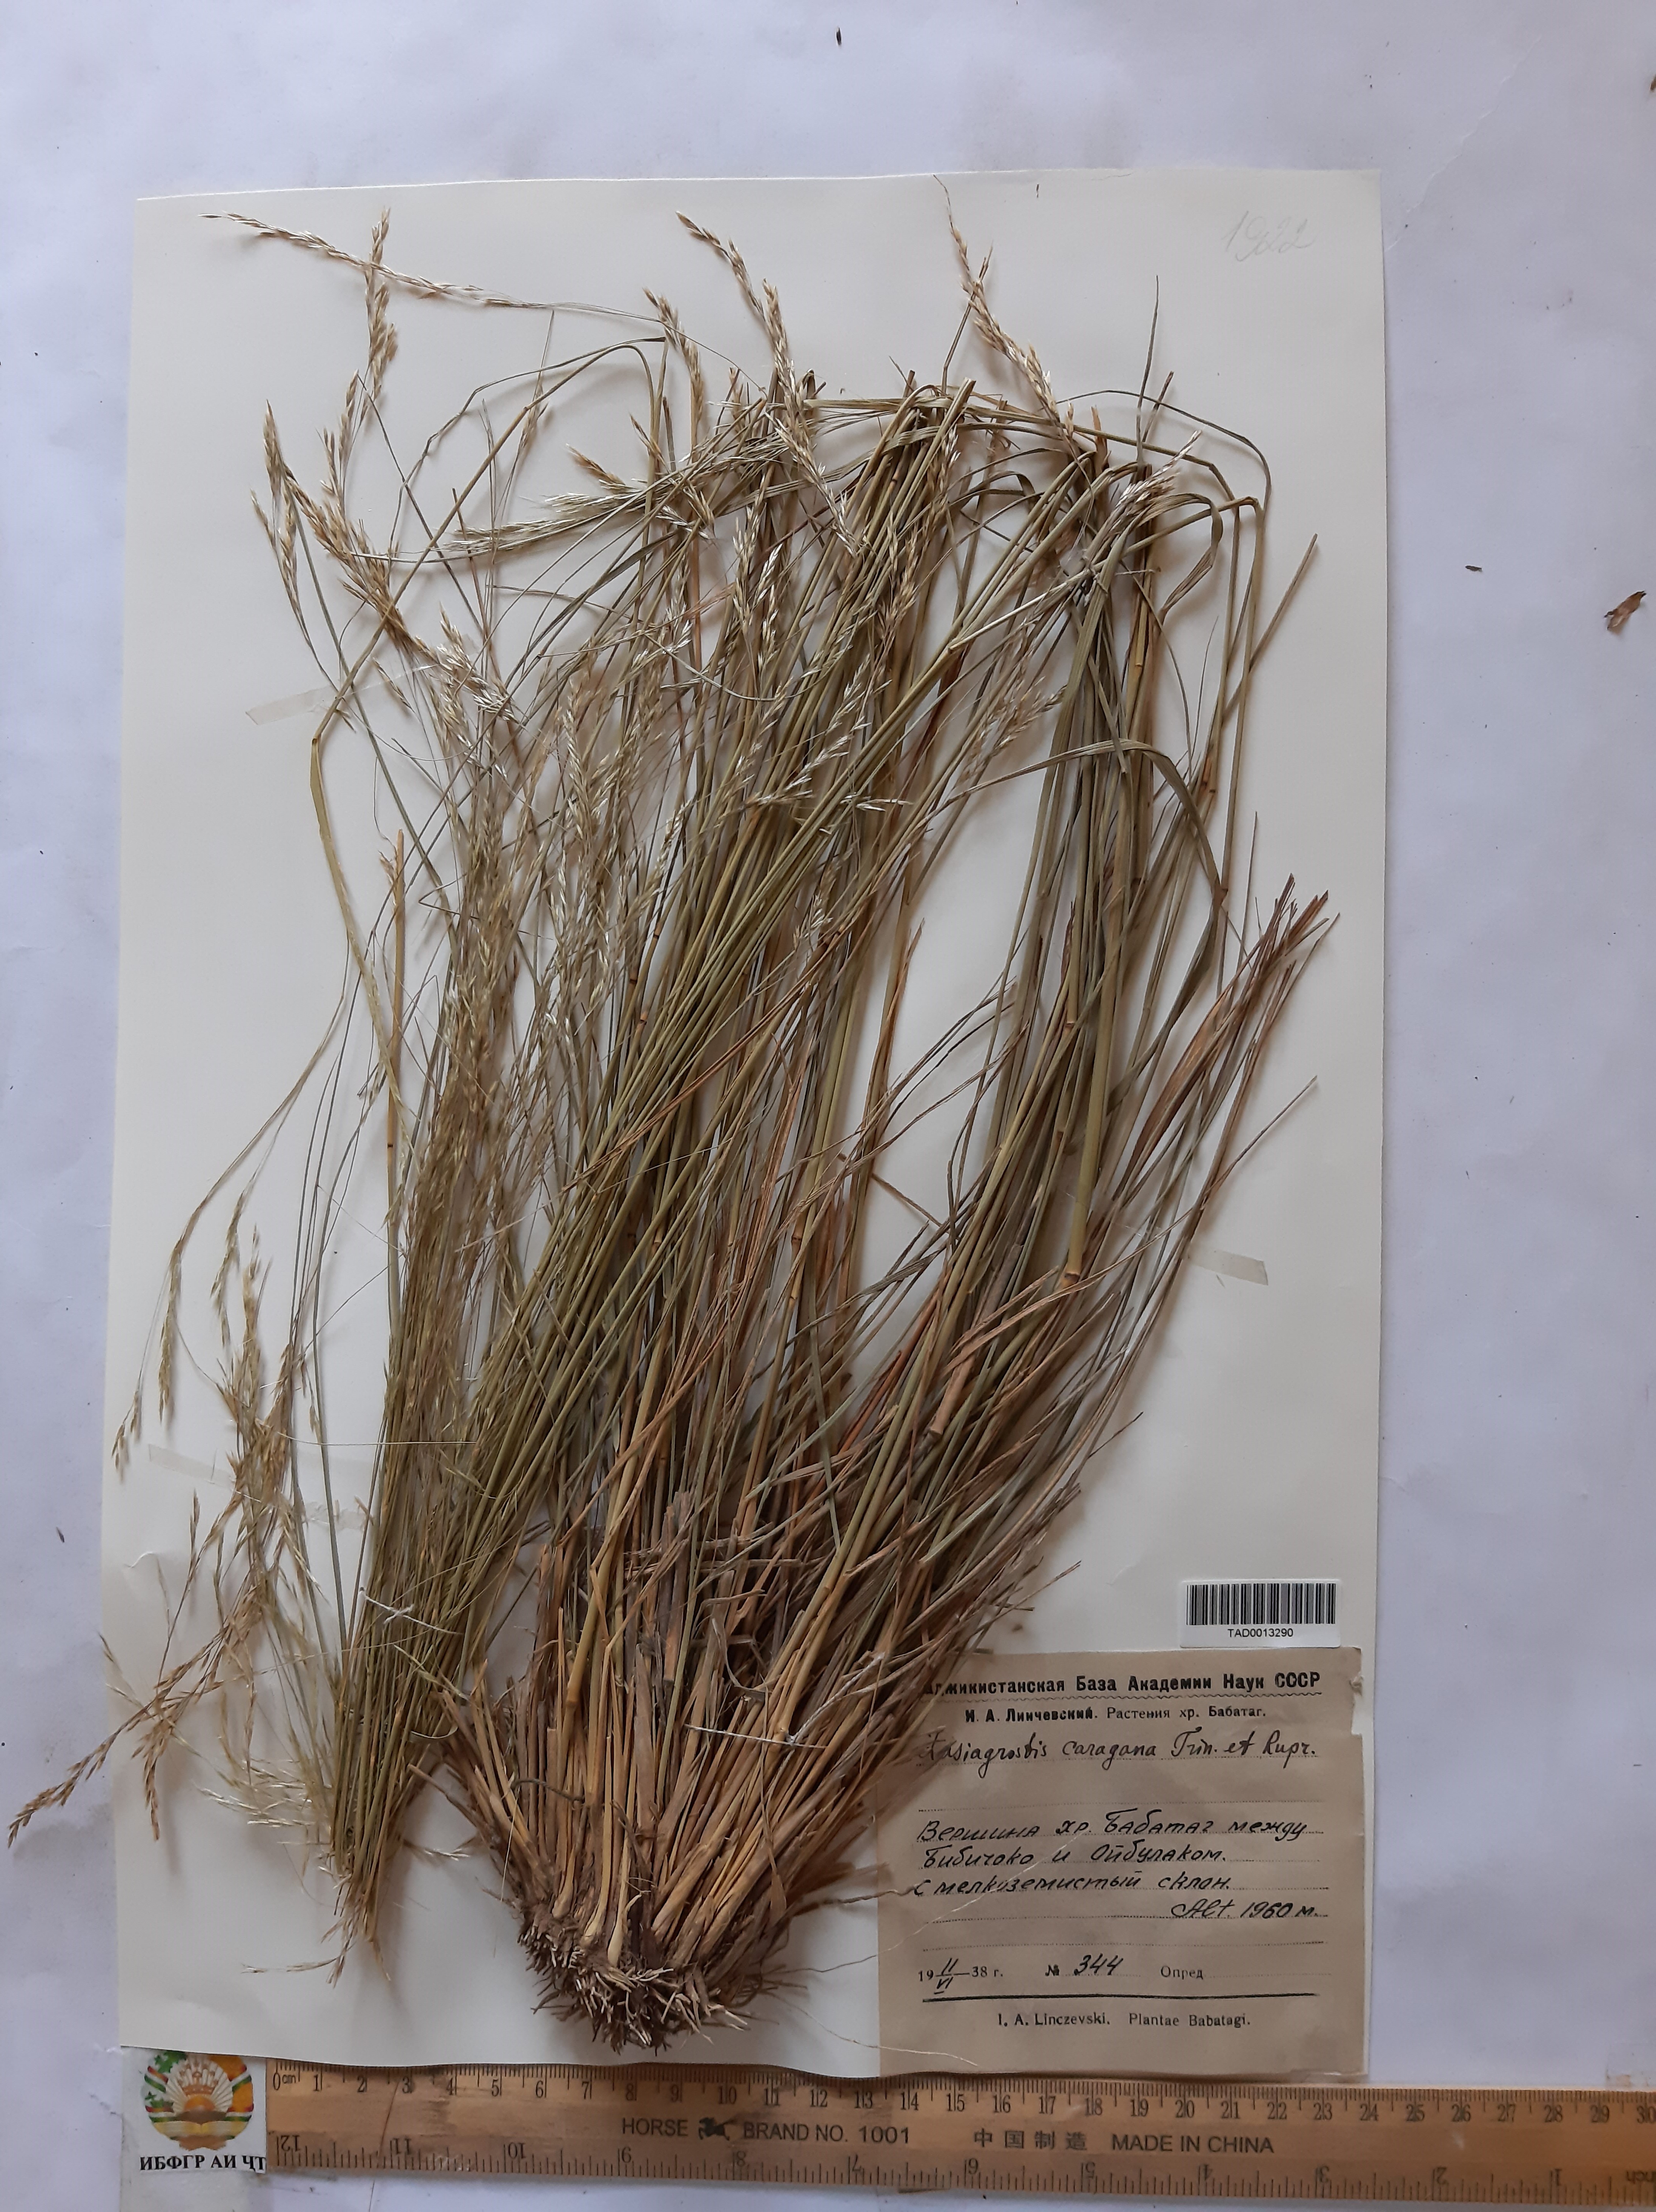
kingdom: Plantae
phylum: Tracheophyta
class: Liliopsida
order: Poales
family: Poaceae
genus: Stipa
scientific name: Stipa conferta
